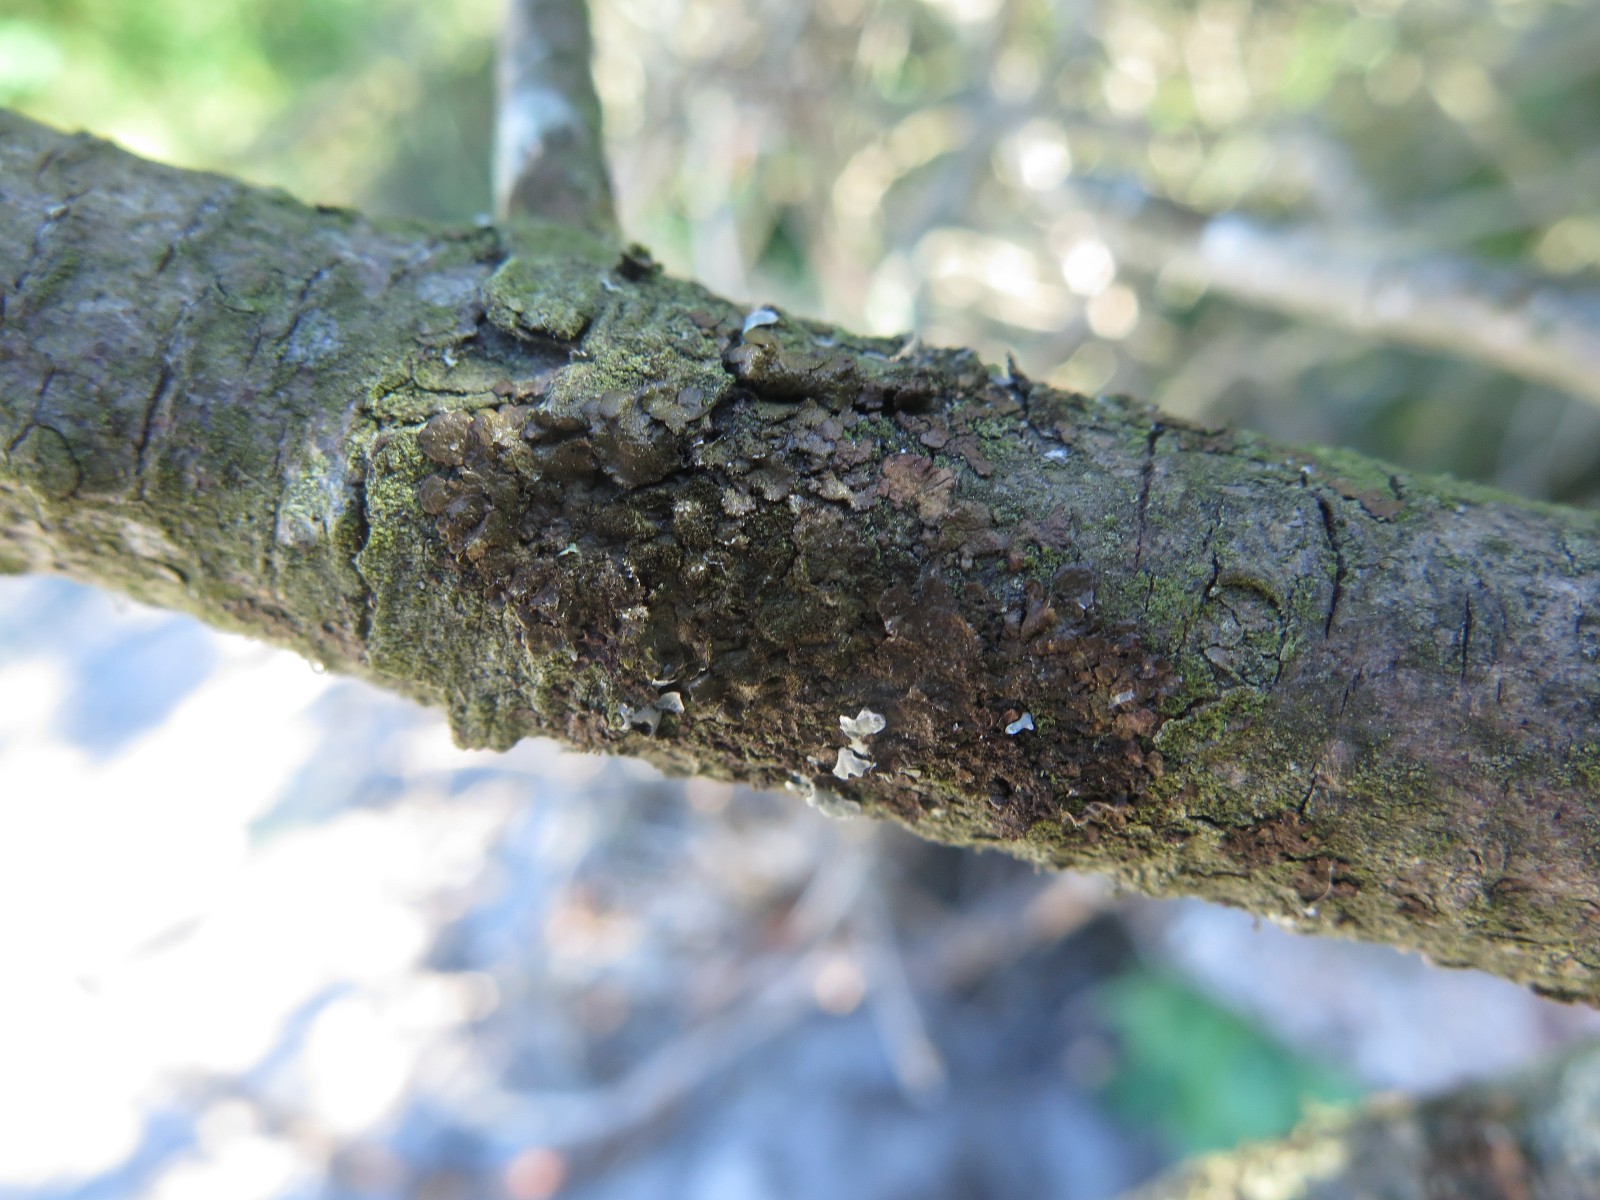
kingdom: Fungi
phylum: Ascomycota
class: Lecanoromycetes
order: Lecanorales
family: Parmeliaceae
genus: Melanelixia
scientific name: Melanelixia subaurifera
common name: guldpudret skållav
